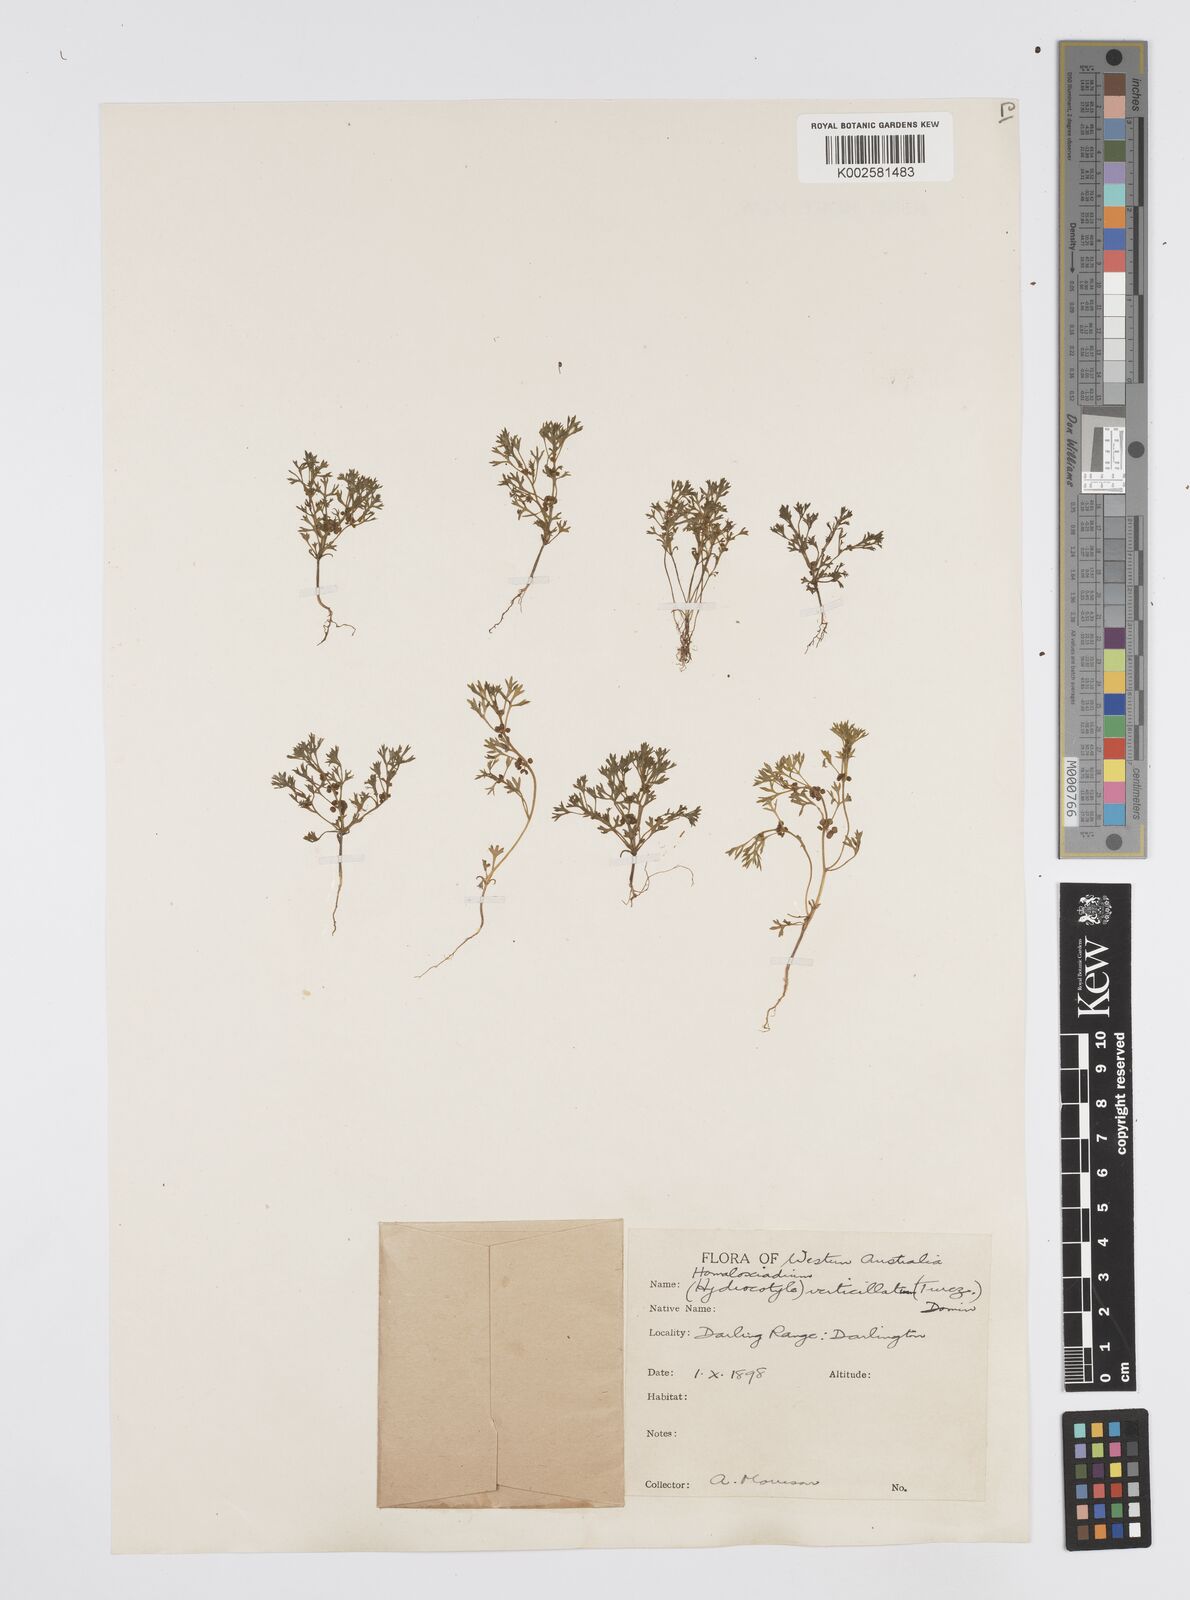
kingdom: Plantae
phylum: Tracheophyta
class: Magnoliopsida
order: Apiales
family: Apiaceae
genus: Homalosciadium
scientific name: Homalosciadium homalocarpum
